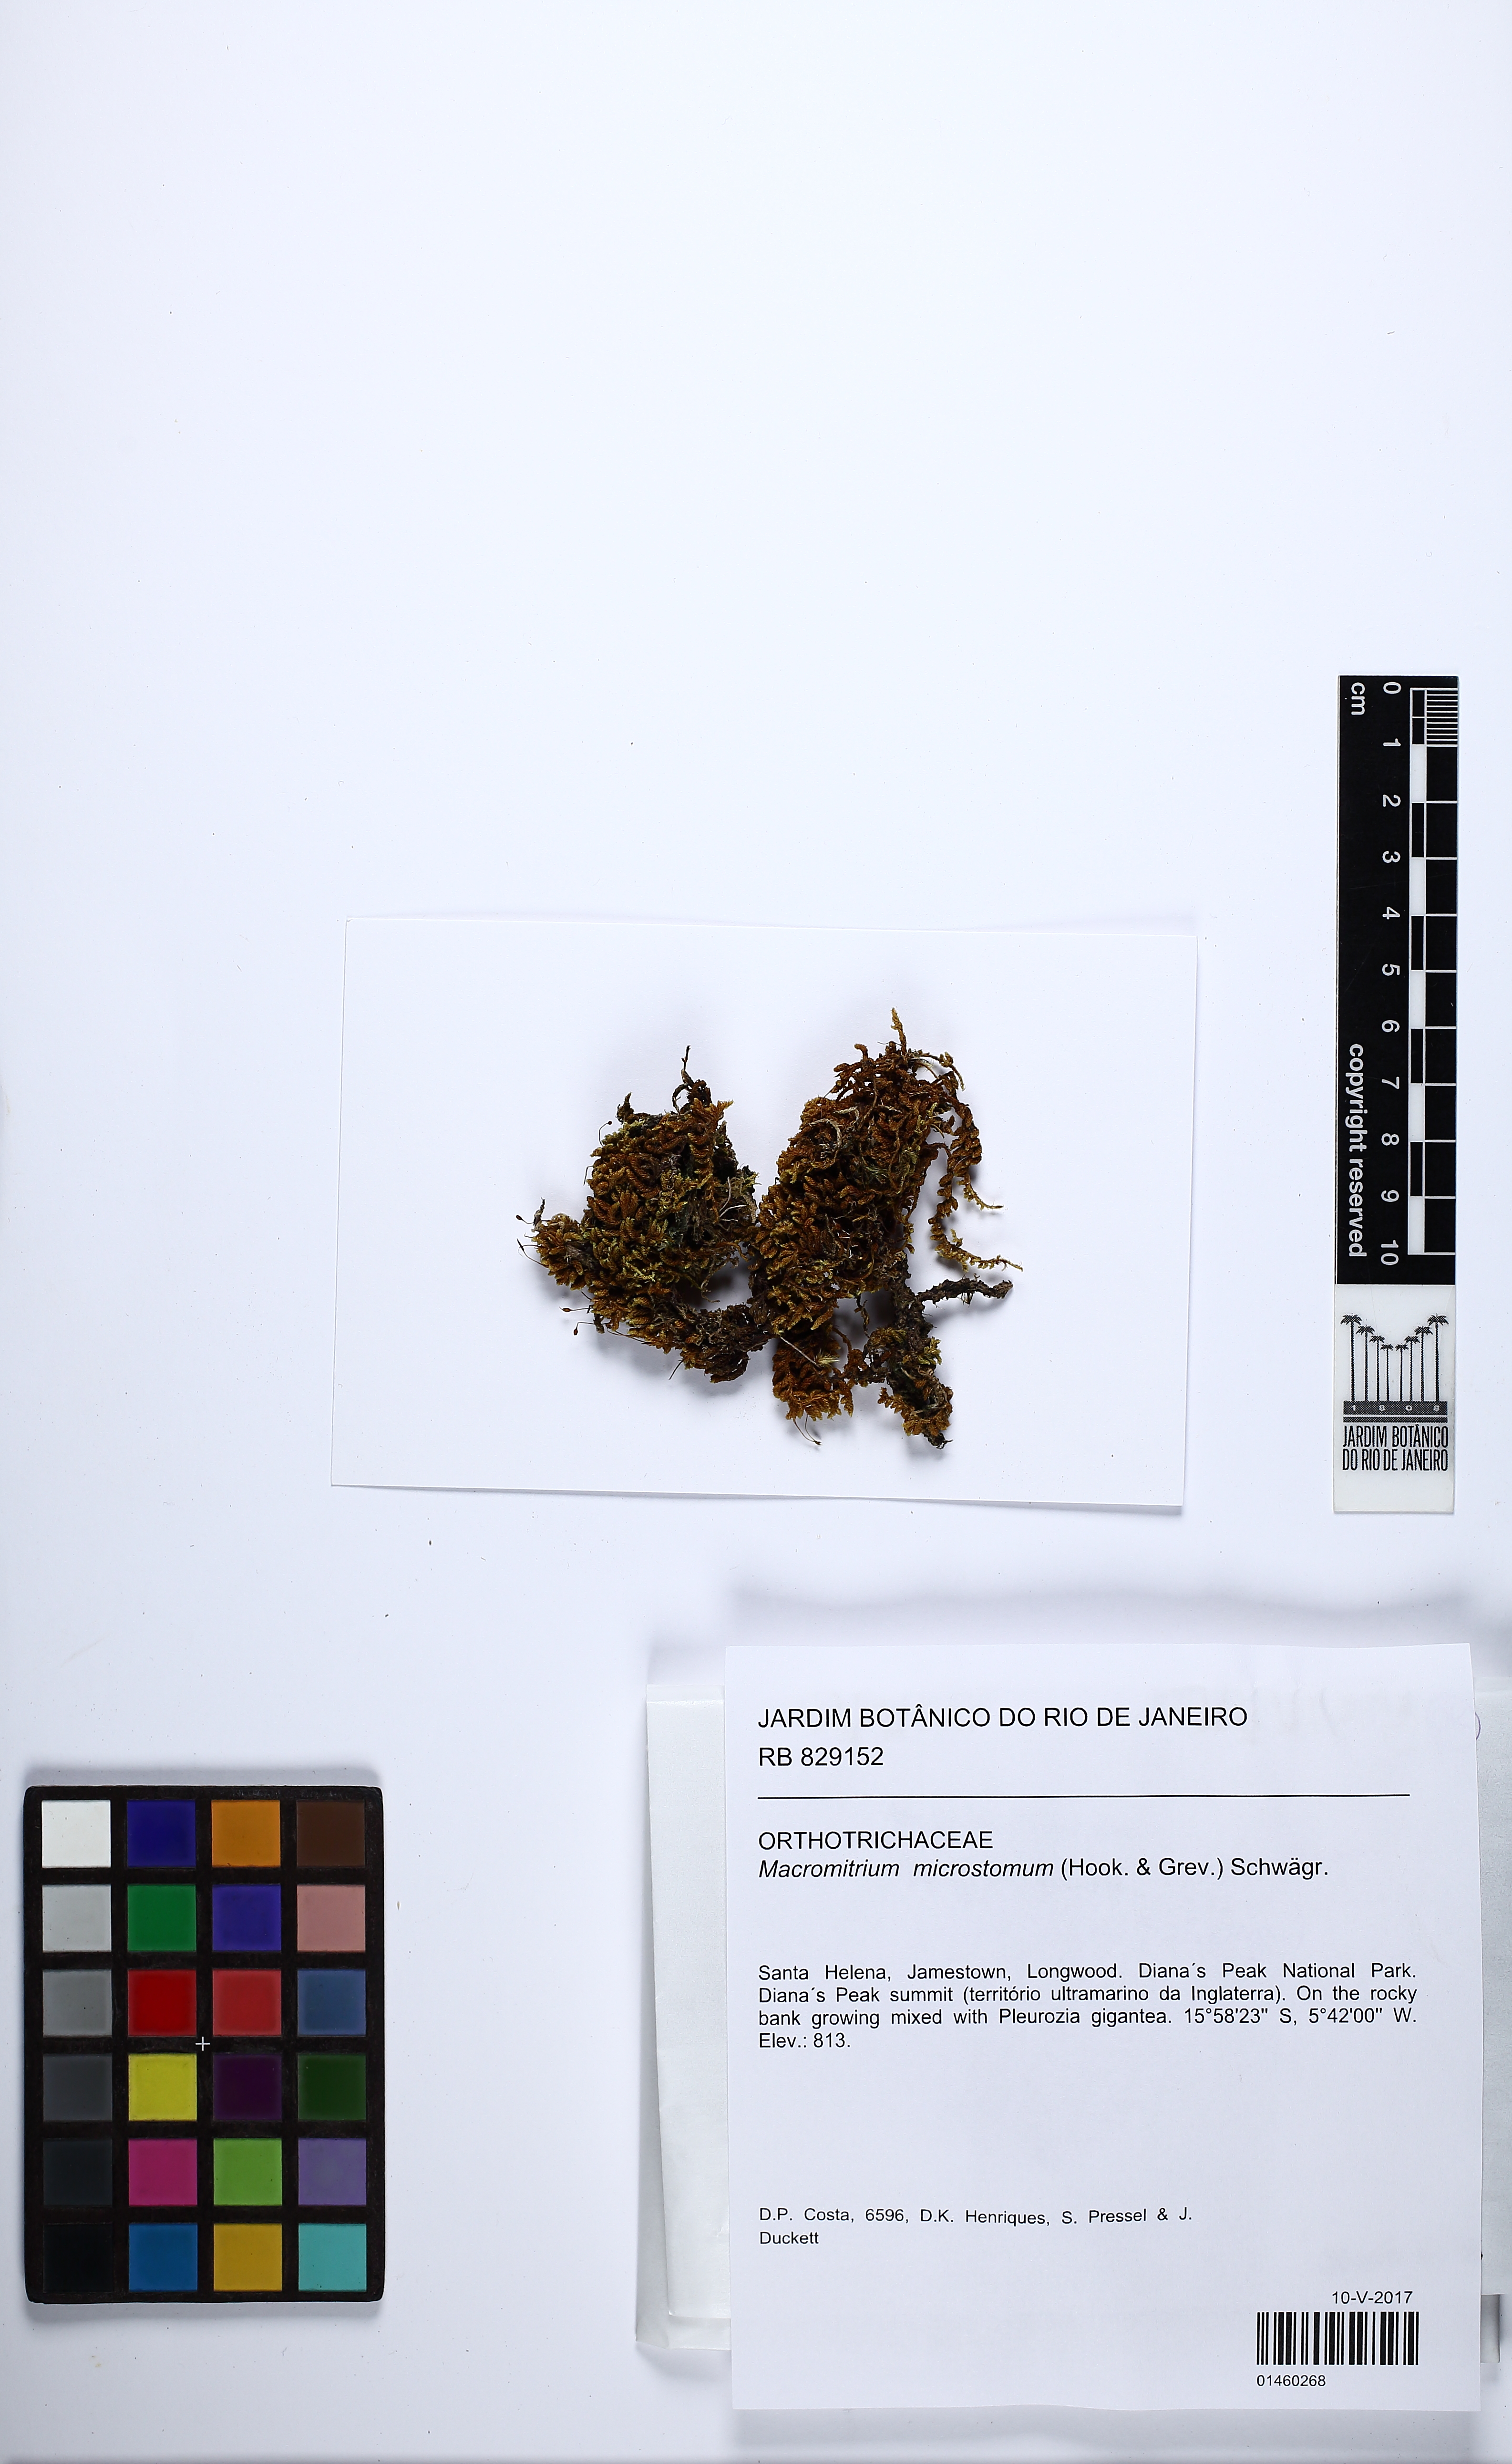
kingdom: Plantae
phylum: Bryophyta
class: Bryopsida
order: Orthotrichales
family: Orthotrichaceae
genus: Macromitrium
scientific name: Macromitrium microstomum
